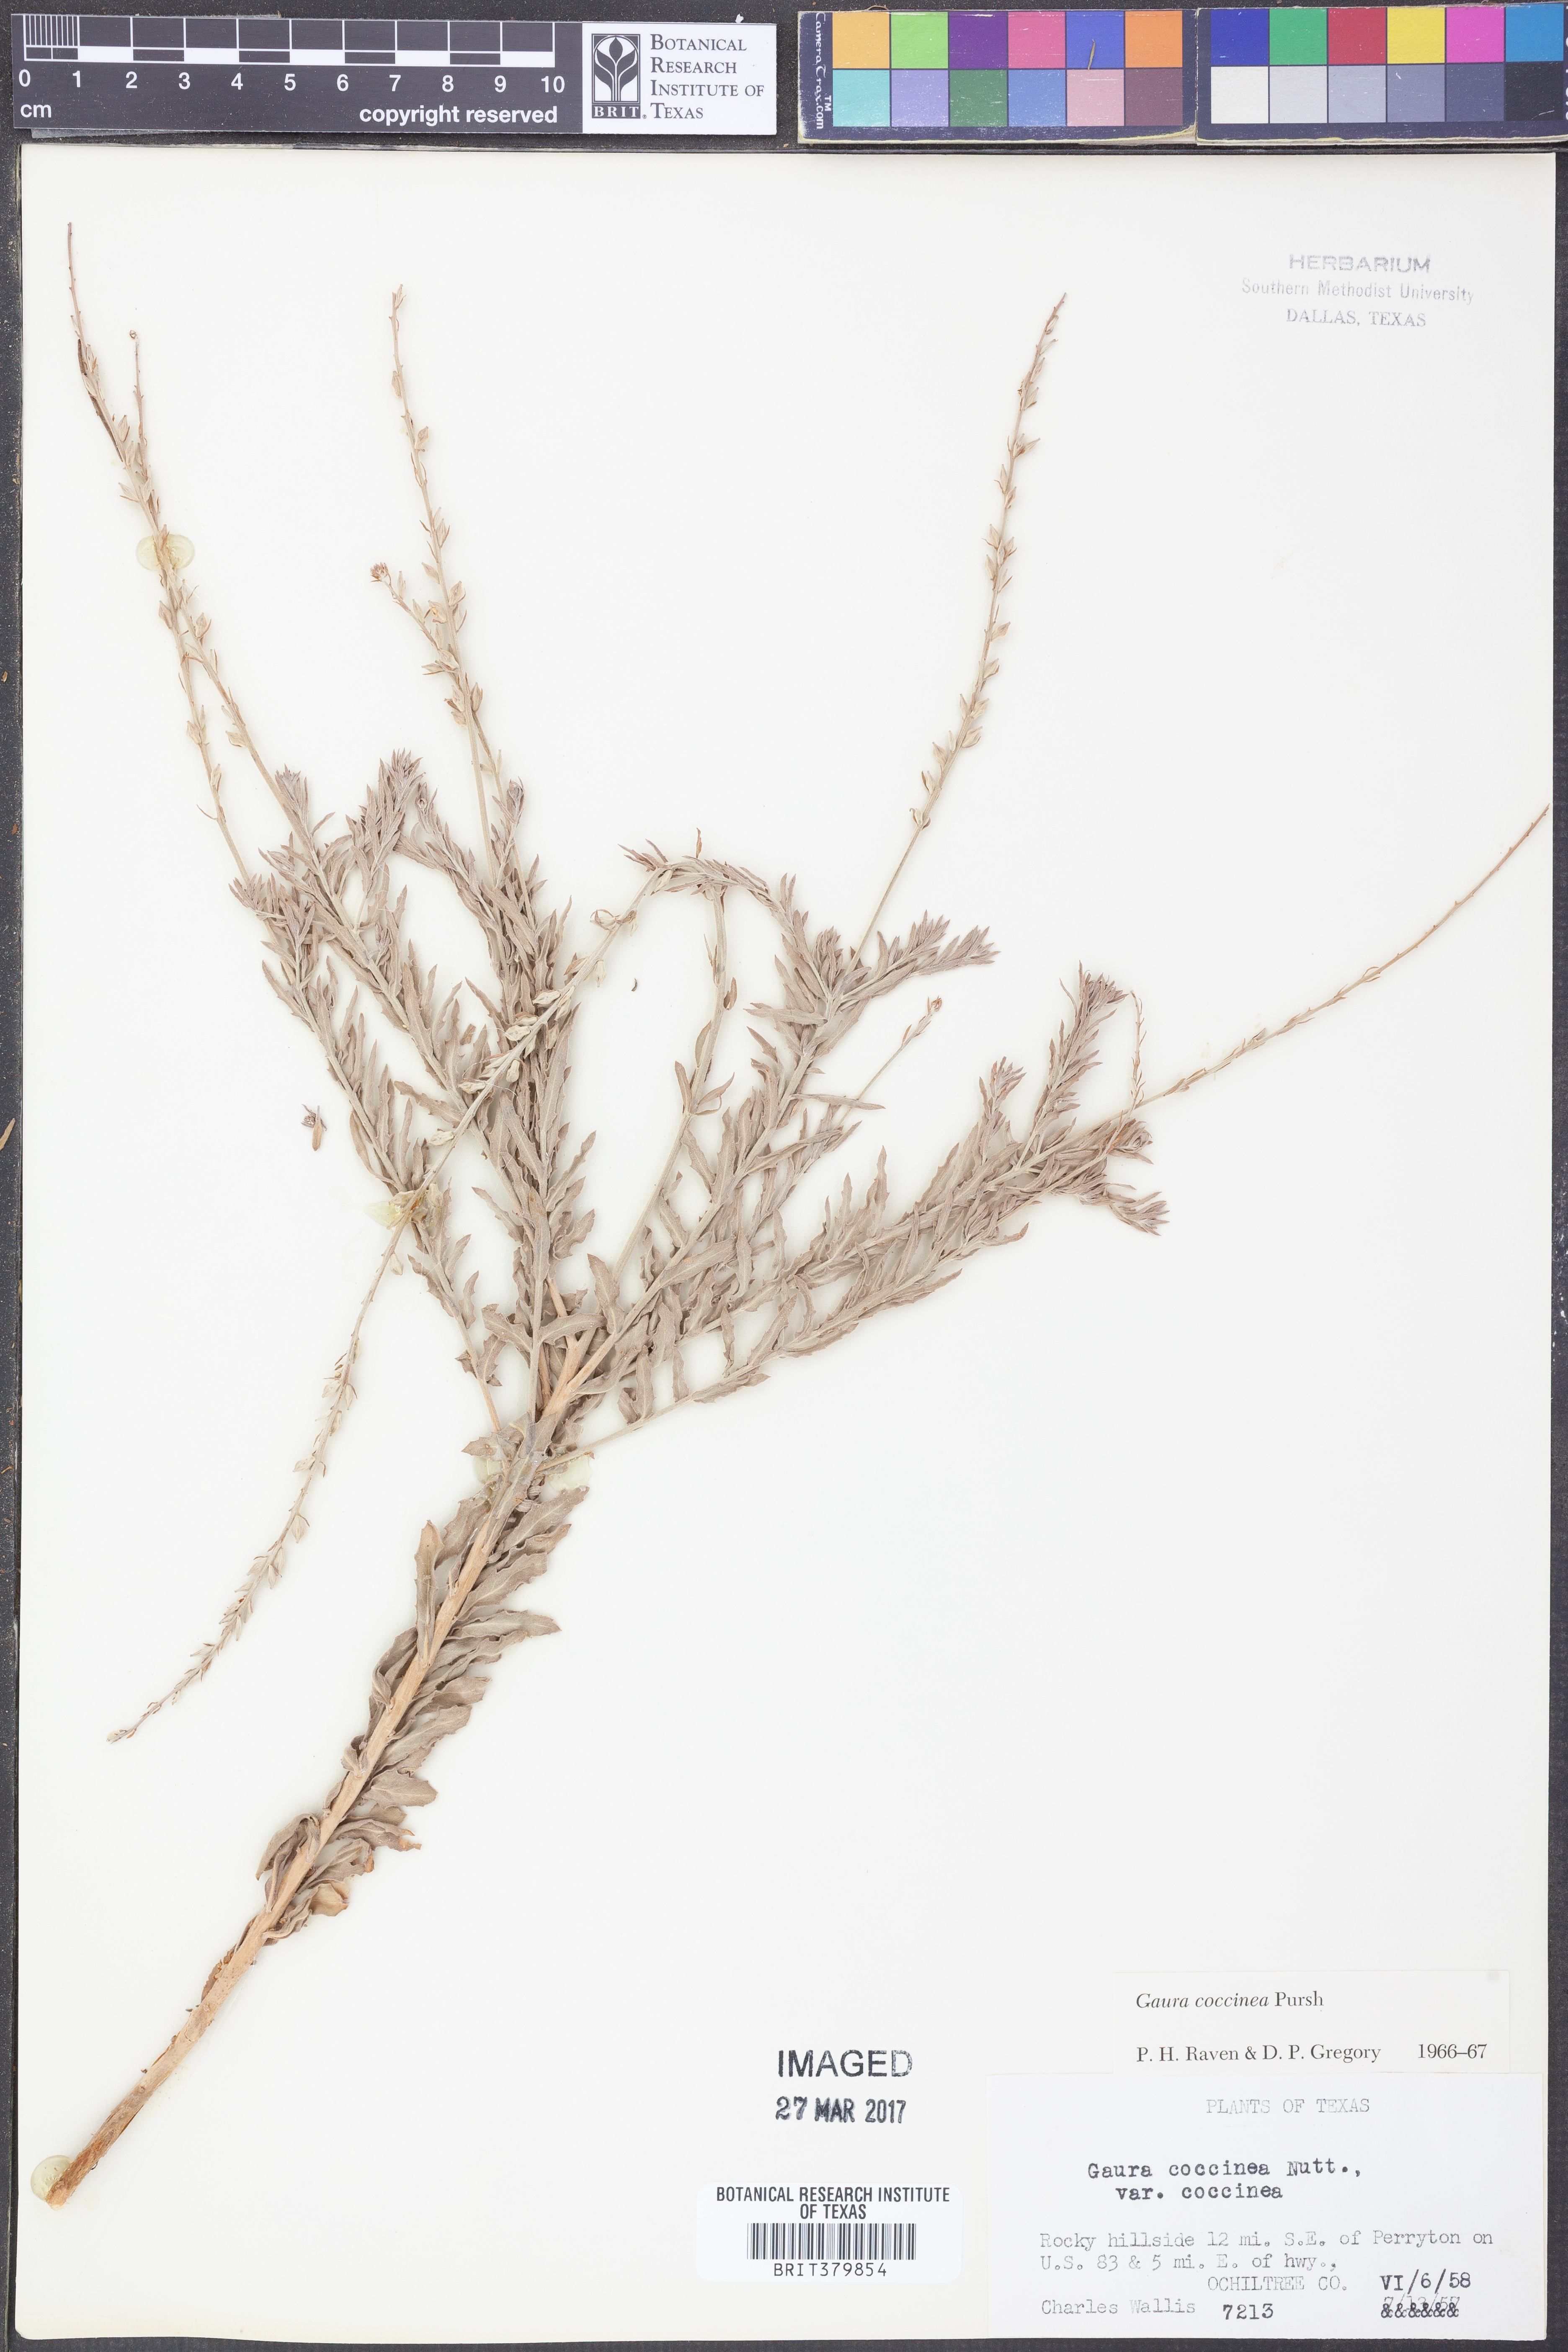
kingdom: Plantae
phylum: Tracheophyta
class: Magnoliopsida
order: Myrtales
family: Onagraceae
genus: Oenothera
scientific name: Oenothera suffrutescens
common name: Scarlet beeblossom
